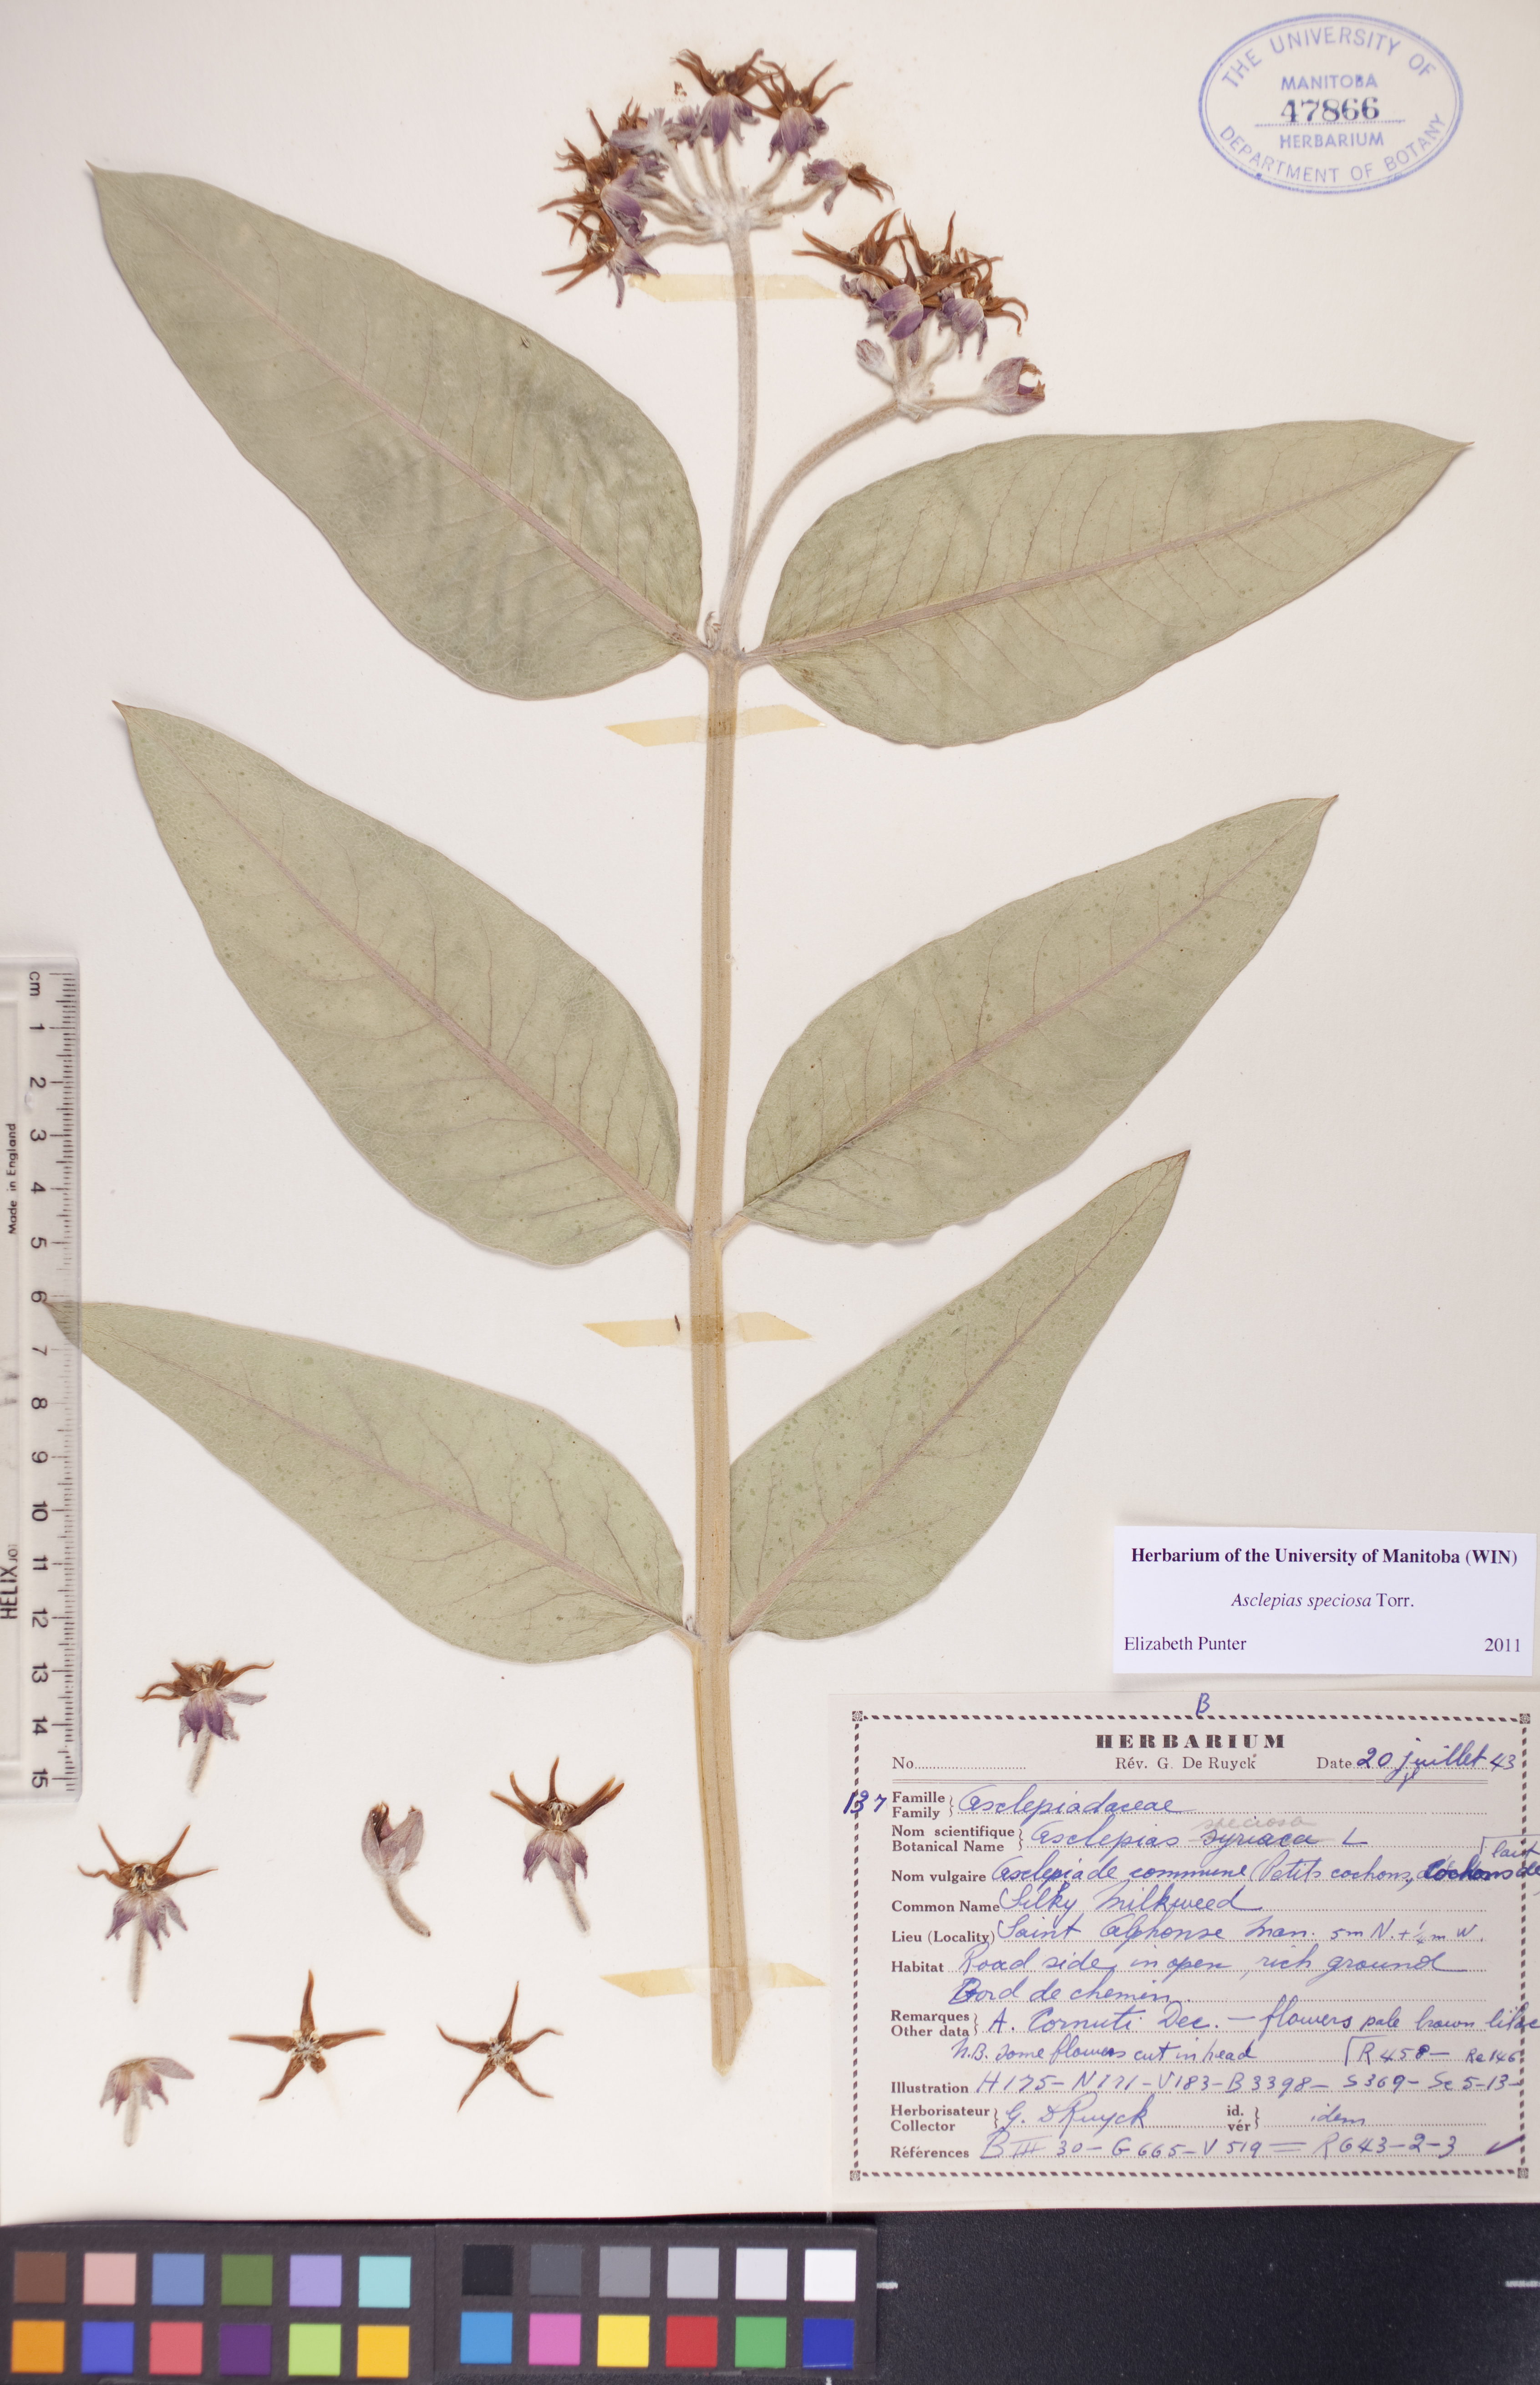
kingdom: Plantae
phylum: Tracheophyta
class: Magnoliopsida
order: Gentianales
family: Apocynaceae
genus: Asclepias
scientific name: Asclepias speciosa
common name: Showy milkweed
